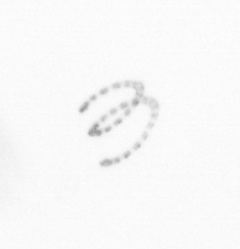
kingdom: Chromista
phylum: Ochrophyta
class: Bacillariophyceae
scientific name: Bacillariophyceae
